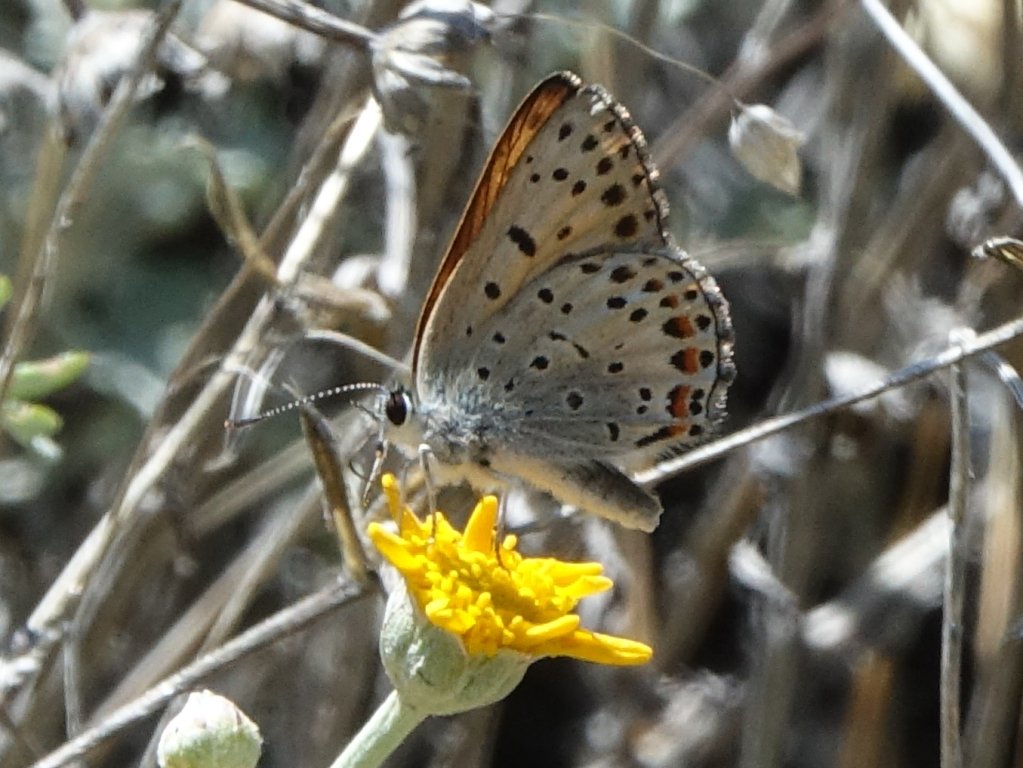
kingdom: Animalia
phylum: Arthropoda
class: Insecta
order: Lepidoptera
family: Lycaenidae
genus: Lycaena
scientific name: Lycaena gorgon
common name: Gorgon Copper
